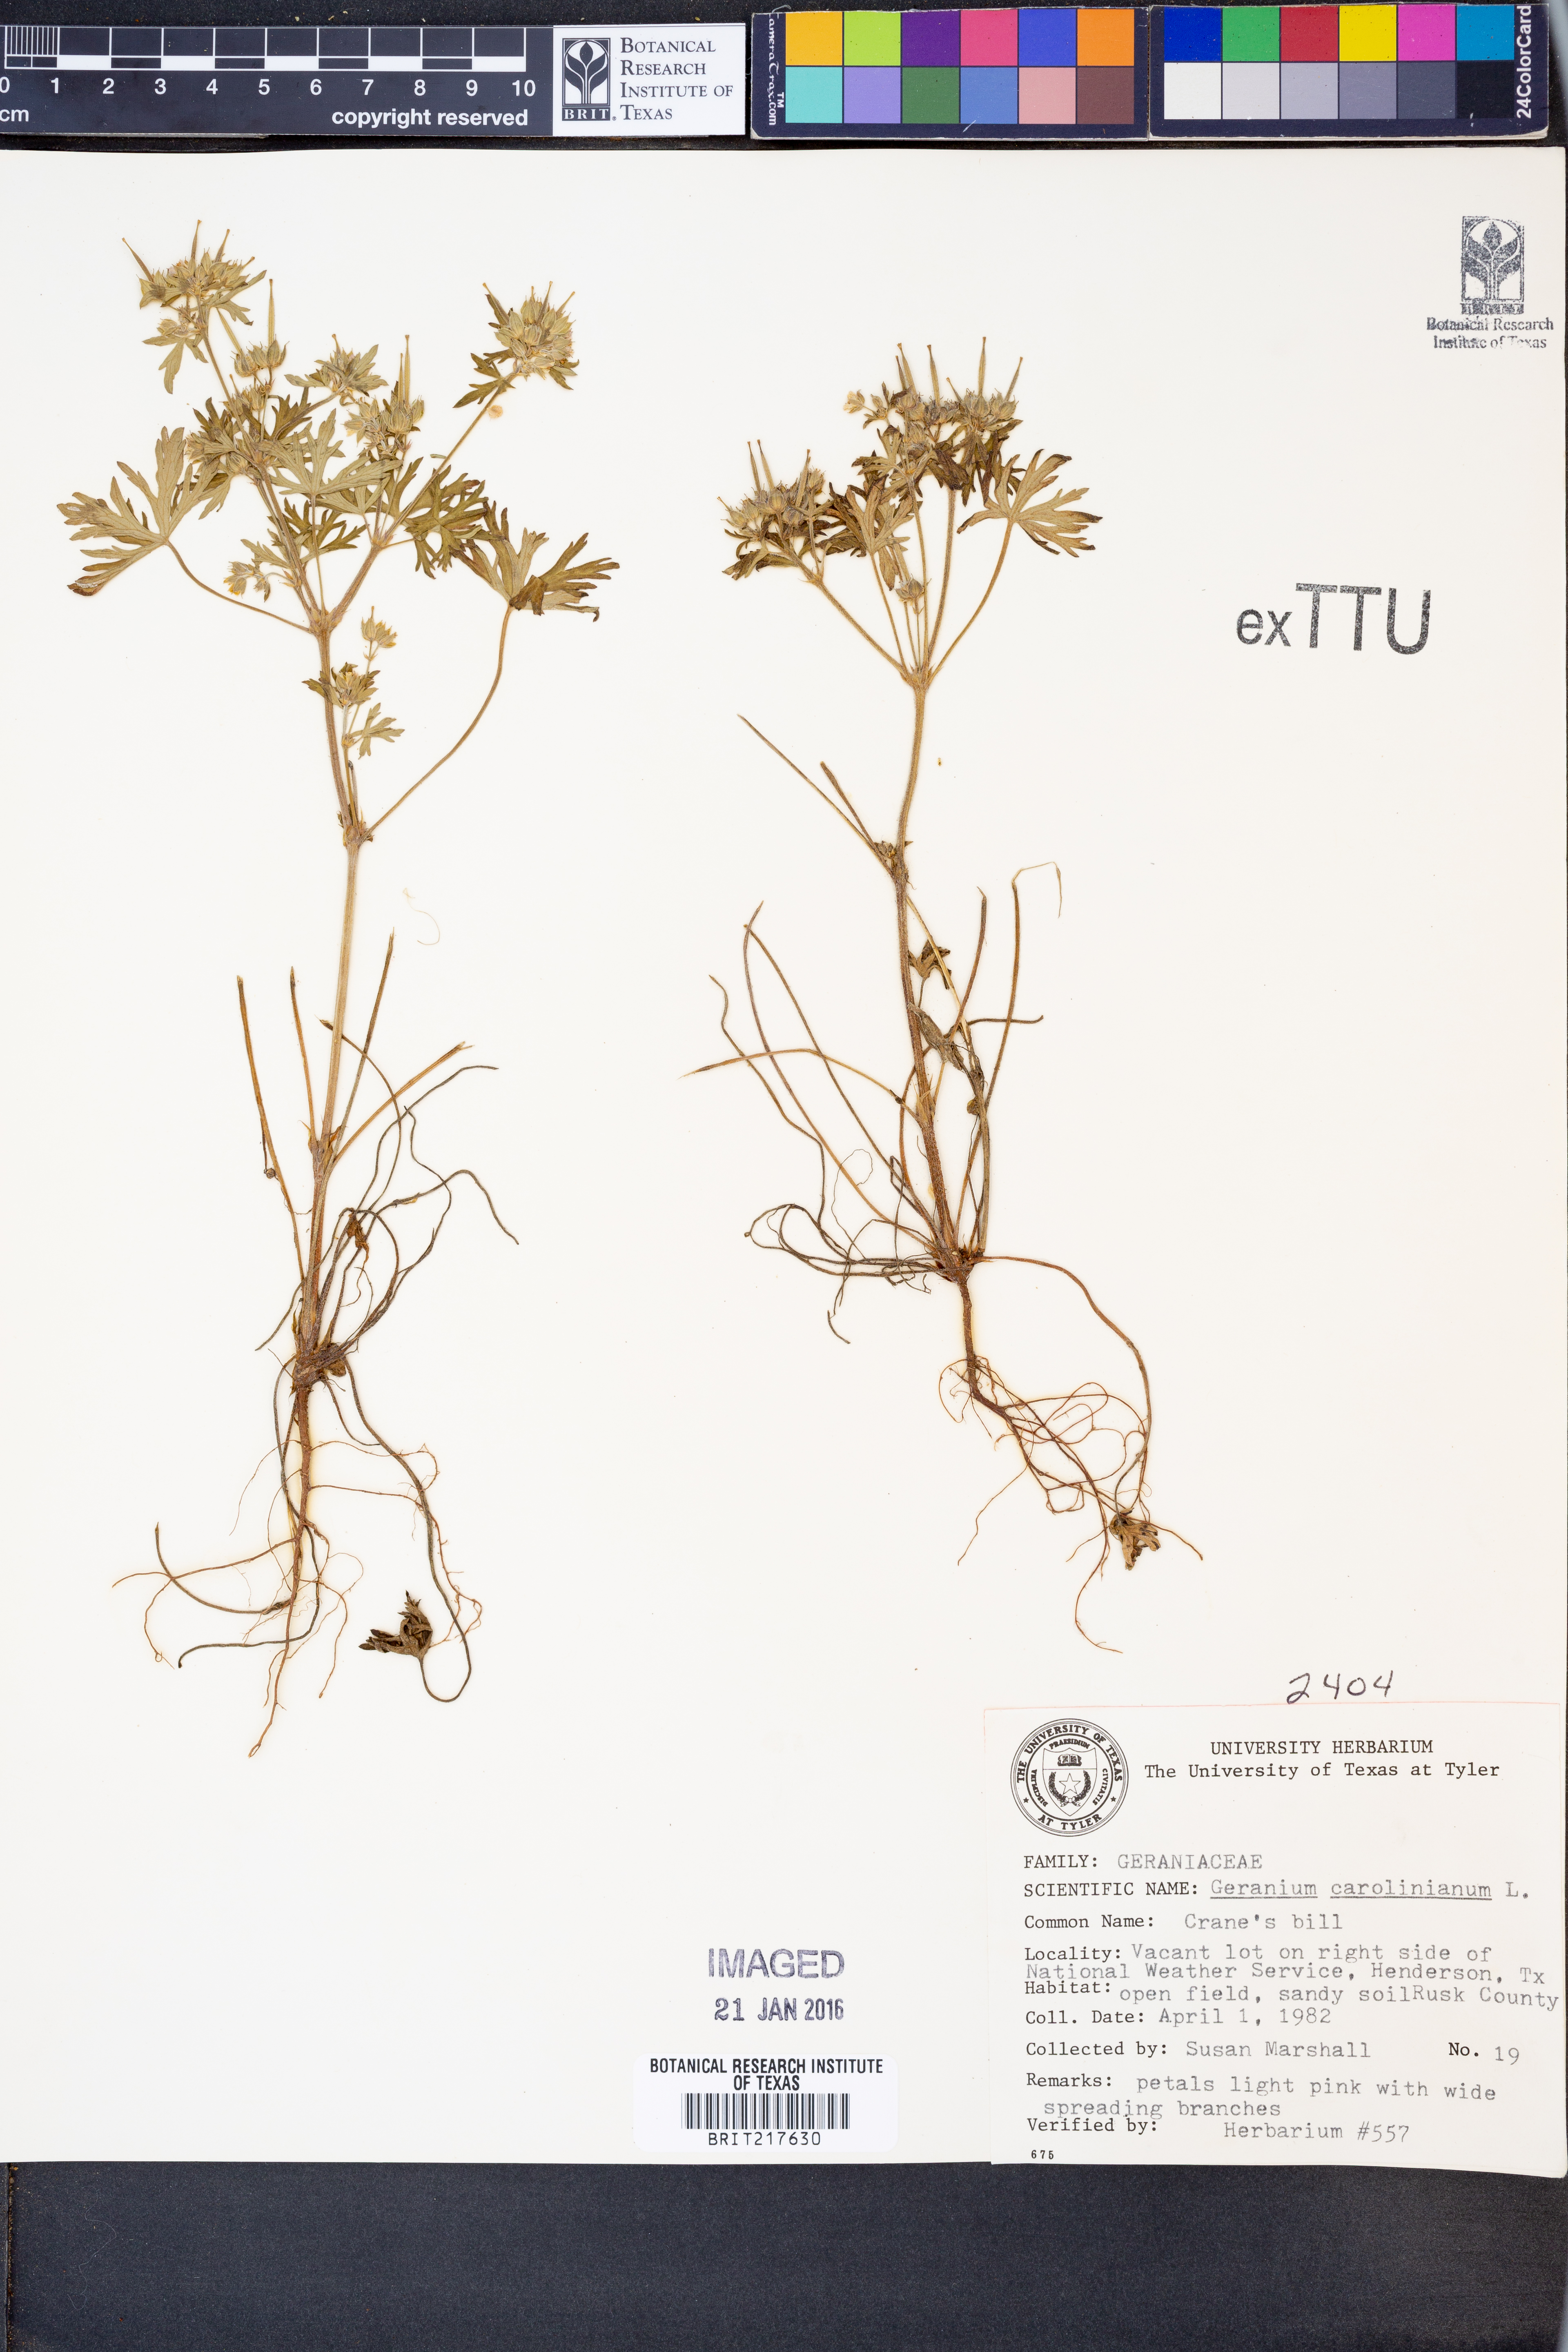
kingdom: Plantae
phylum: Tracheophyta
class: Magnoliopsida
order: Geraniales
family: Geraniaceae
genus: Geranium
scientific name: Geranium carolinianum
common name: Carolina crane's-bill
